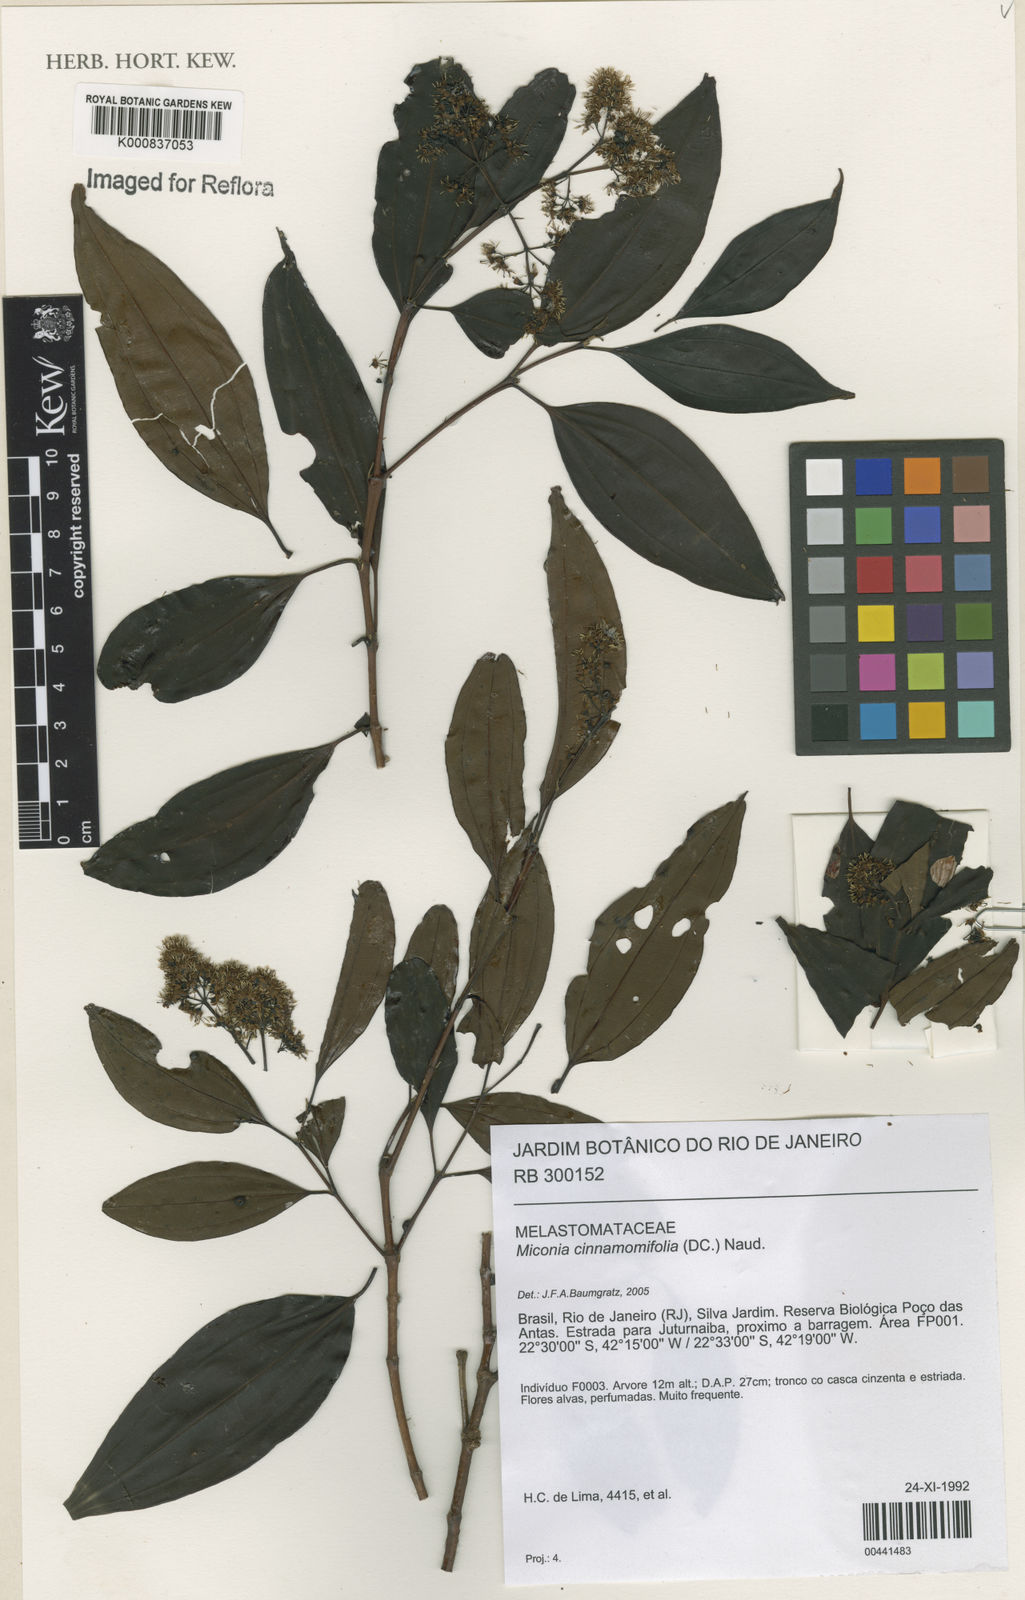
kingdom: Plantae
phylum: Tracheophyta
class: Magnoliopsida
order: Myrtales
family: Melastomataceae
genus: Miconia
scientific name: Miconia cinnamomifolia
